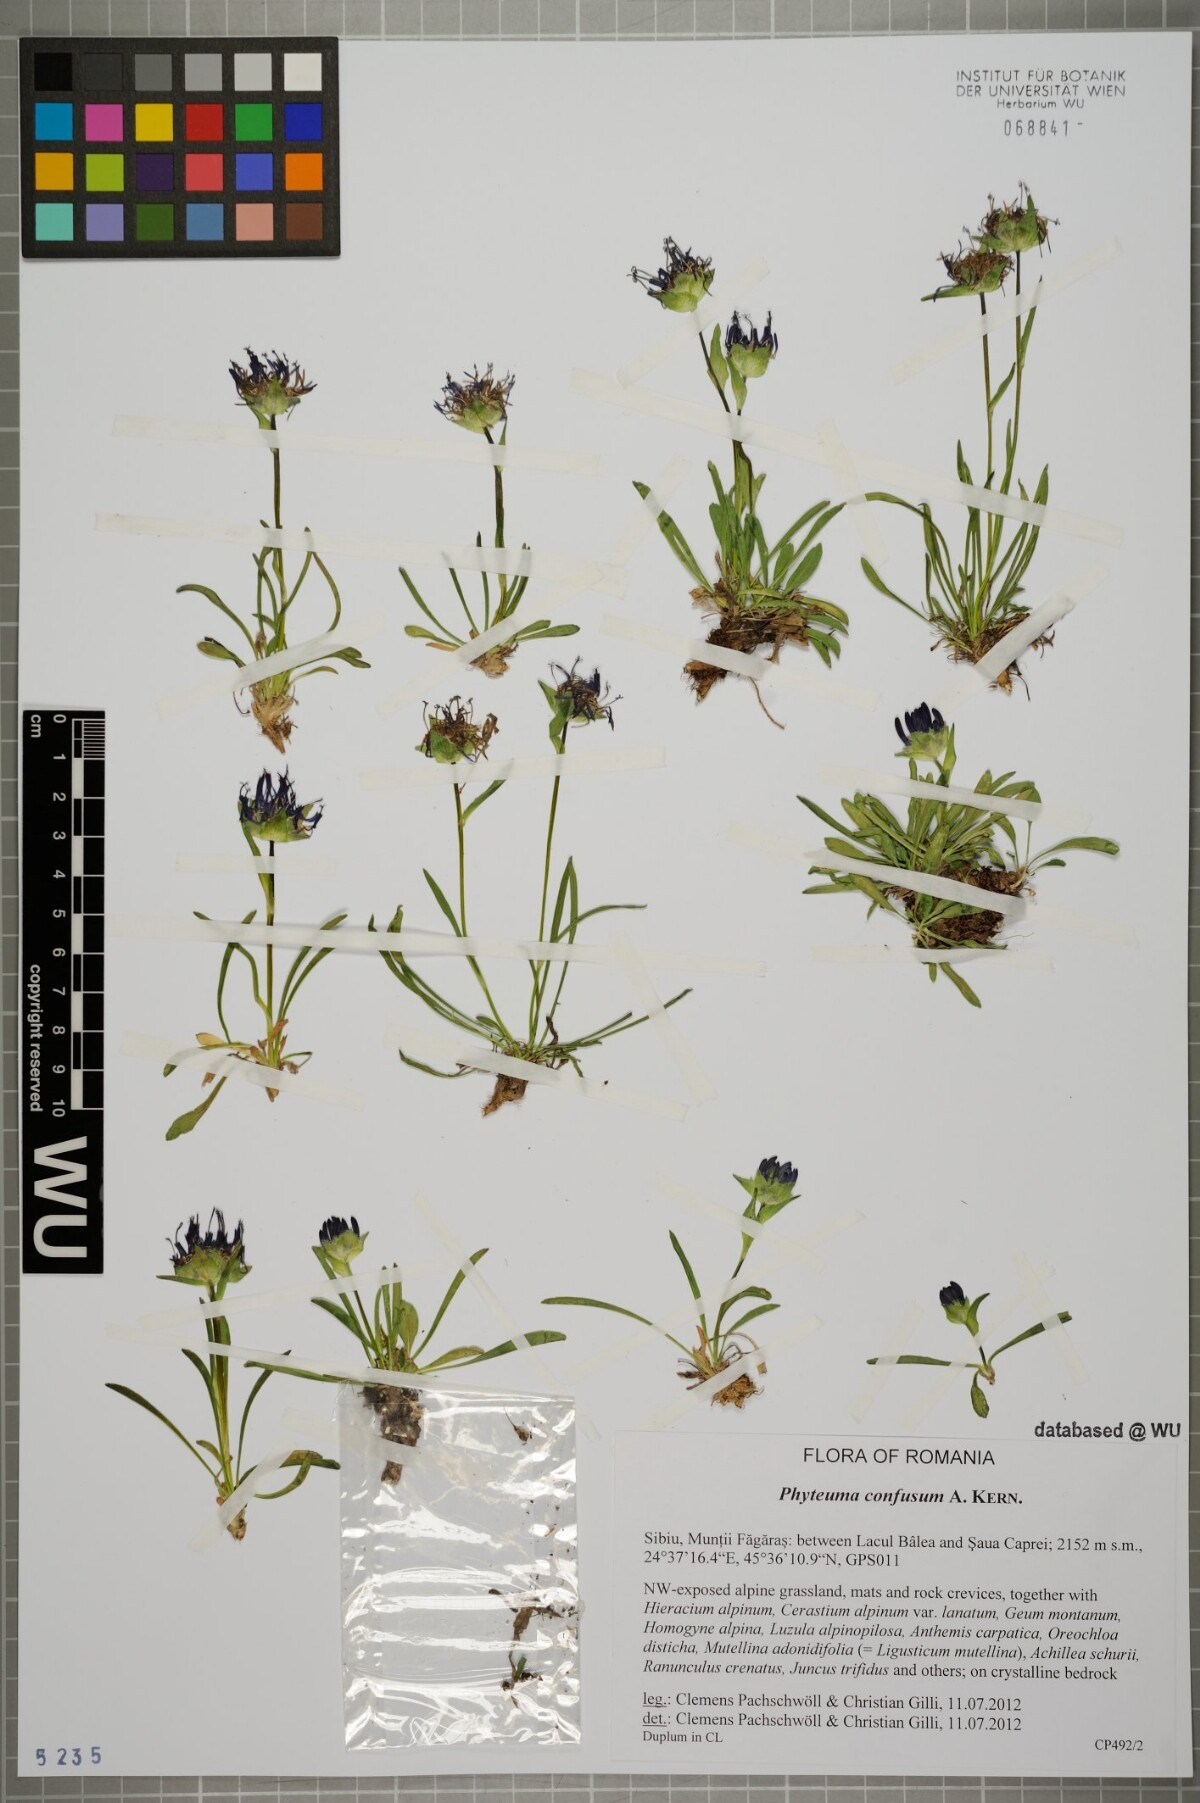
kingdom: Plantae
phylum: Tracheophyta
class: Magnoliopsida
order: Asterales
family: Campanulaceae
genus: Phyteuma
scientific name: Phyteuma confusum
